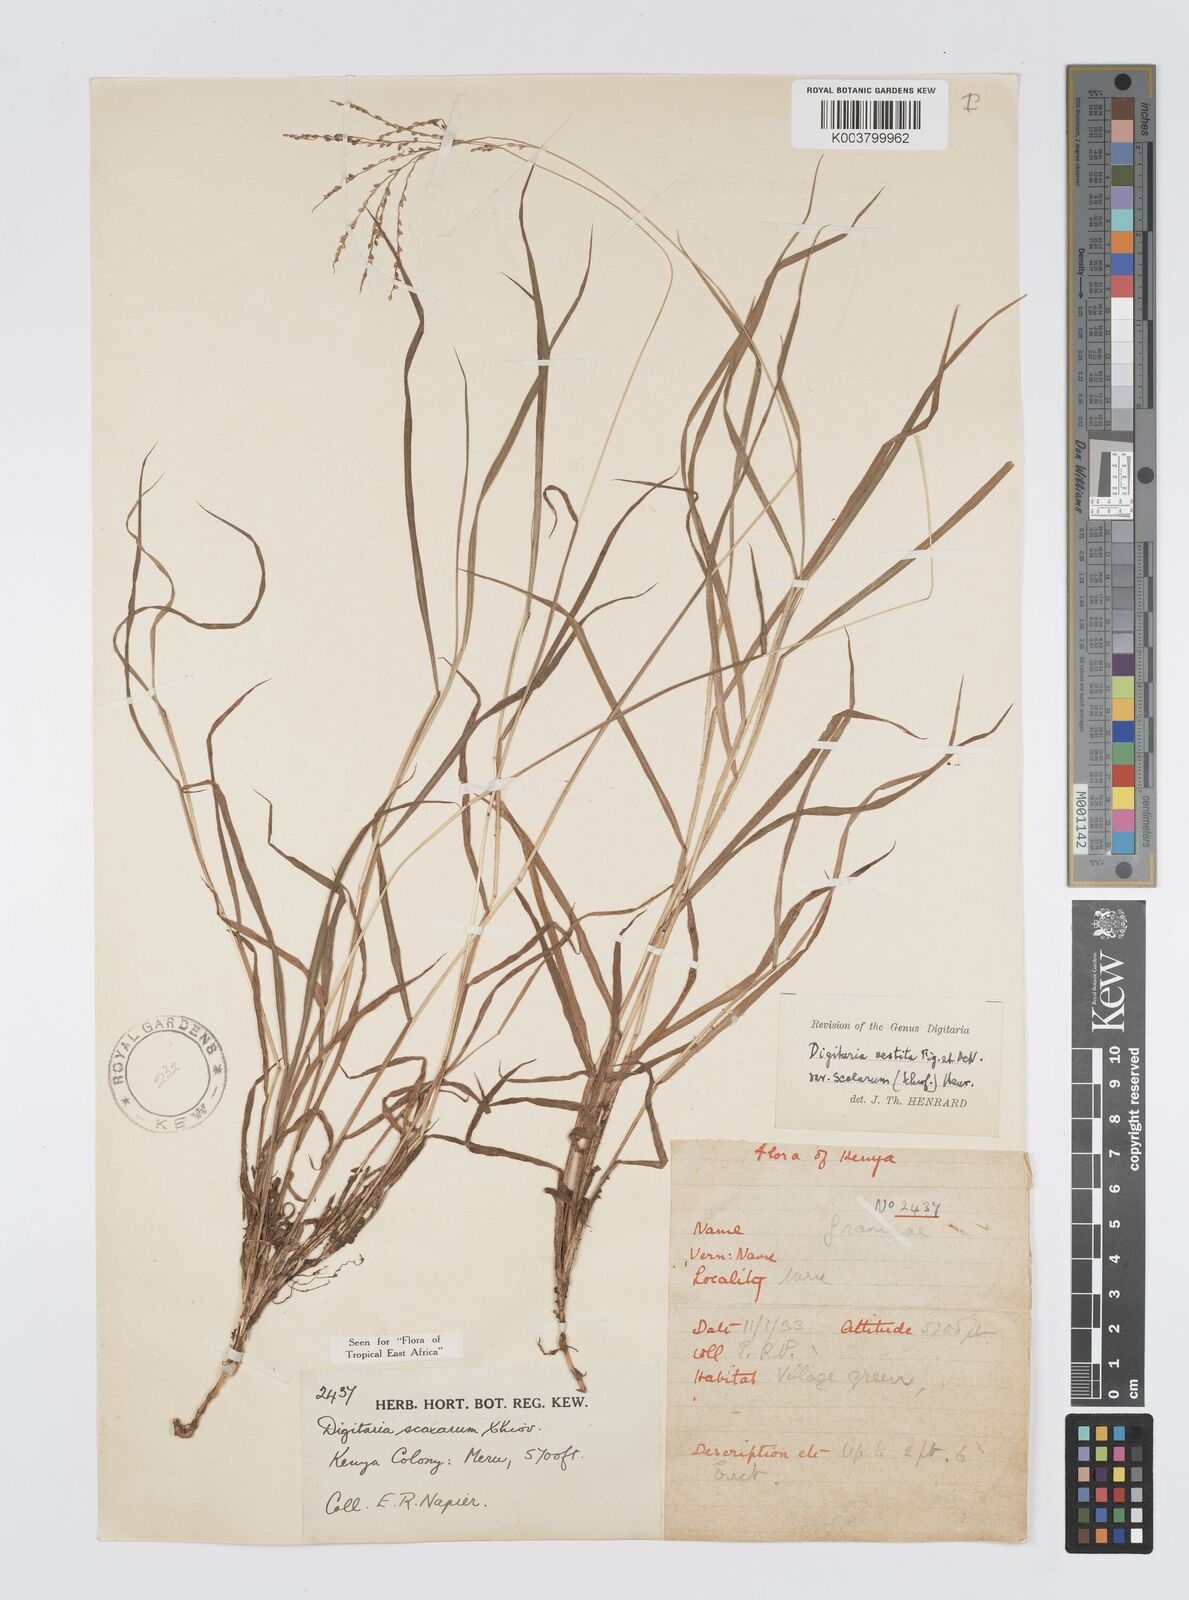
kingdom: Plantae
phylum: Tracheophyta
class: Liliopsida
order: Poales
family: Poaceae
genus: Digitaria
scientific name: Digitaria abyssinica
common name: African couchgrass
